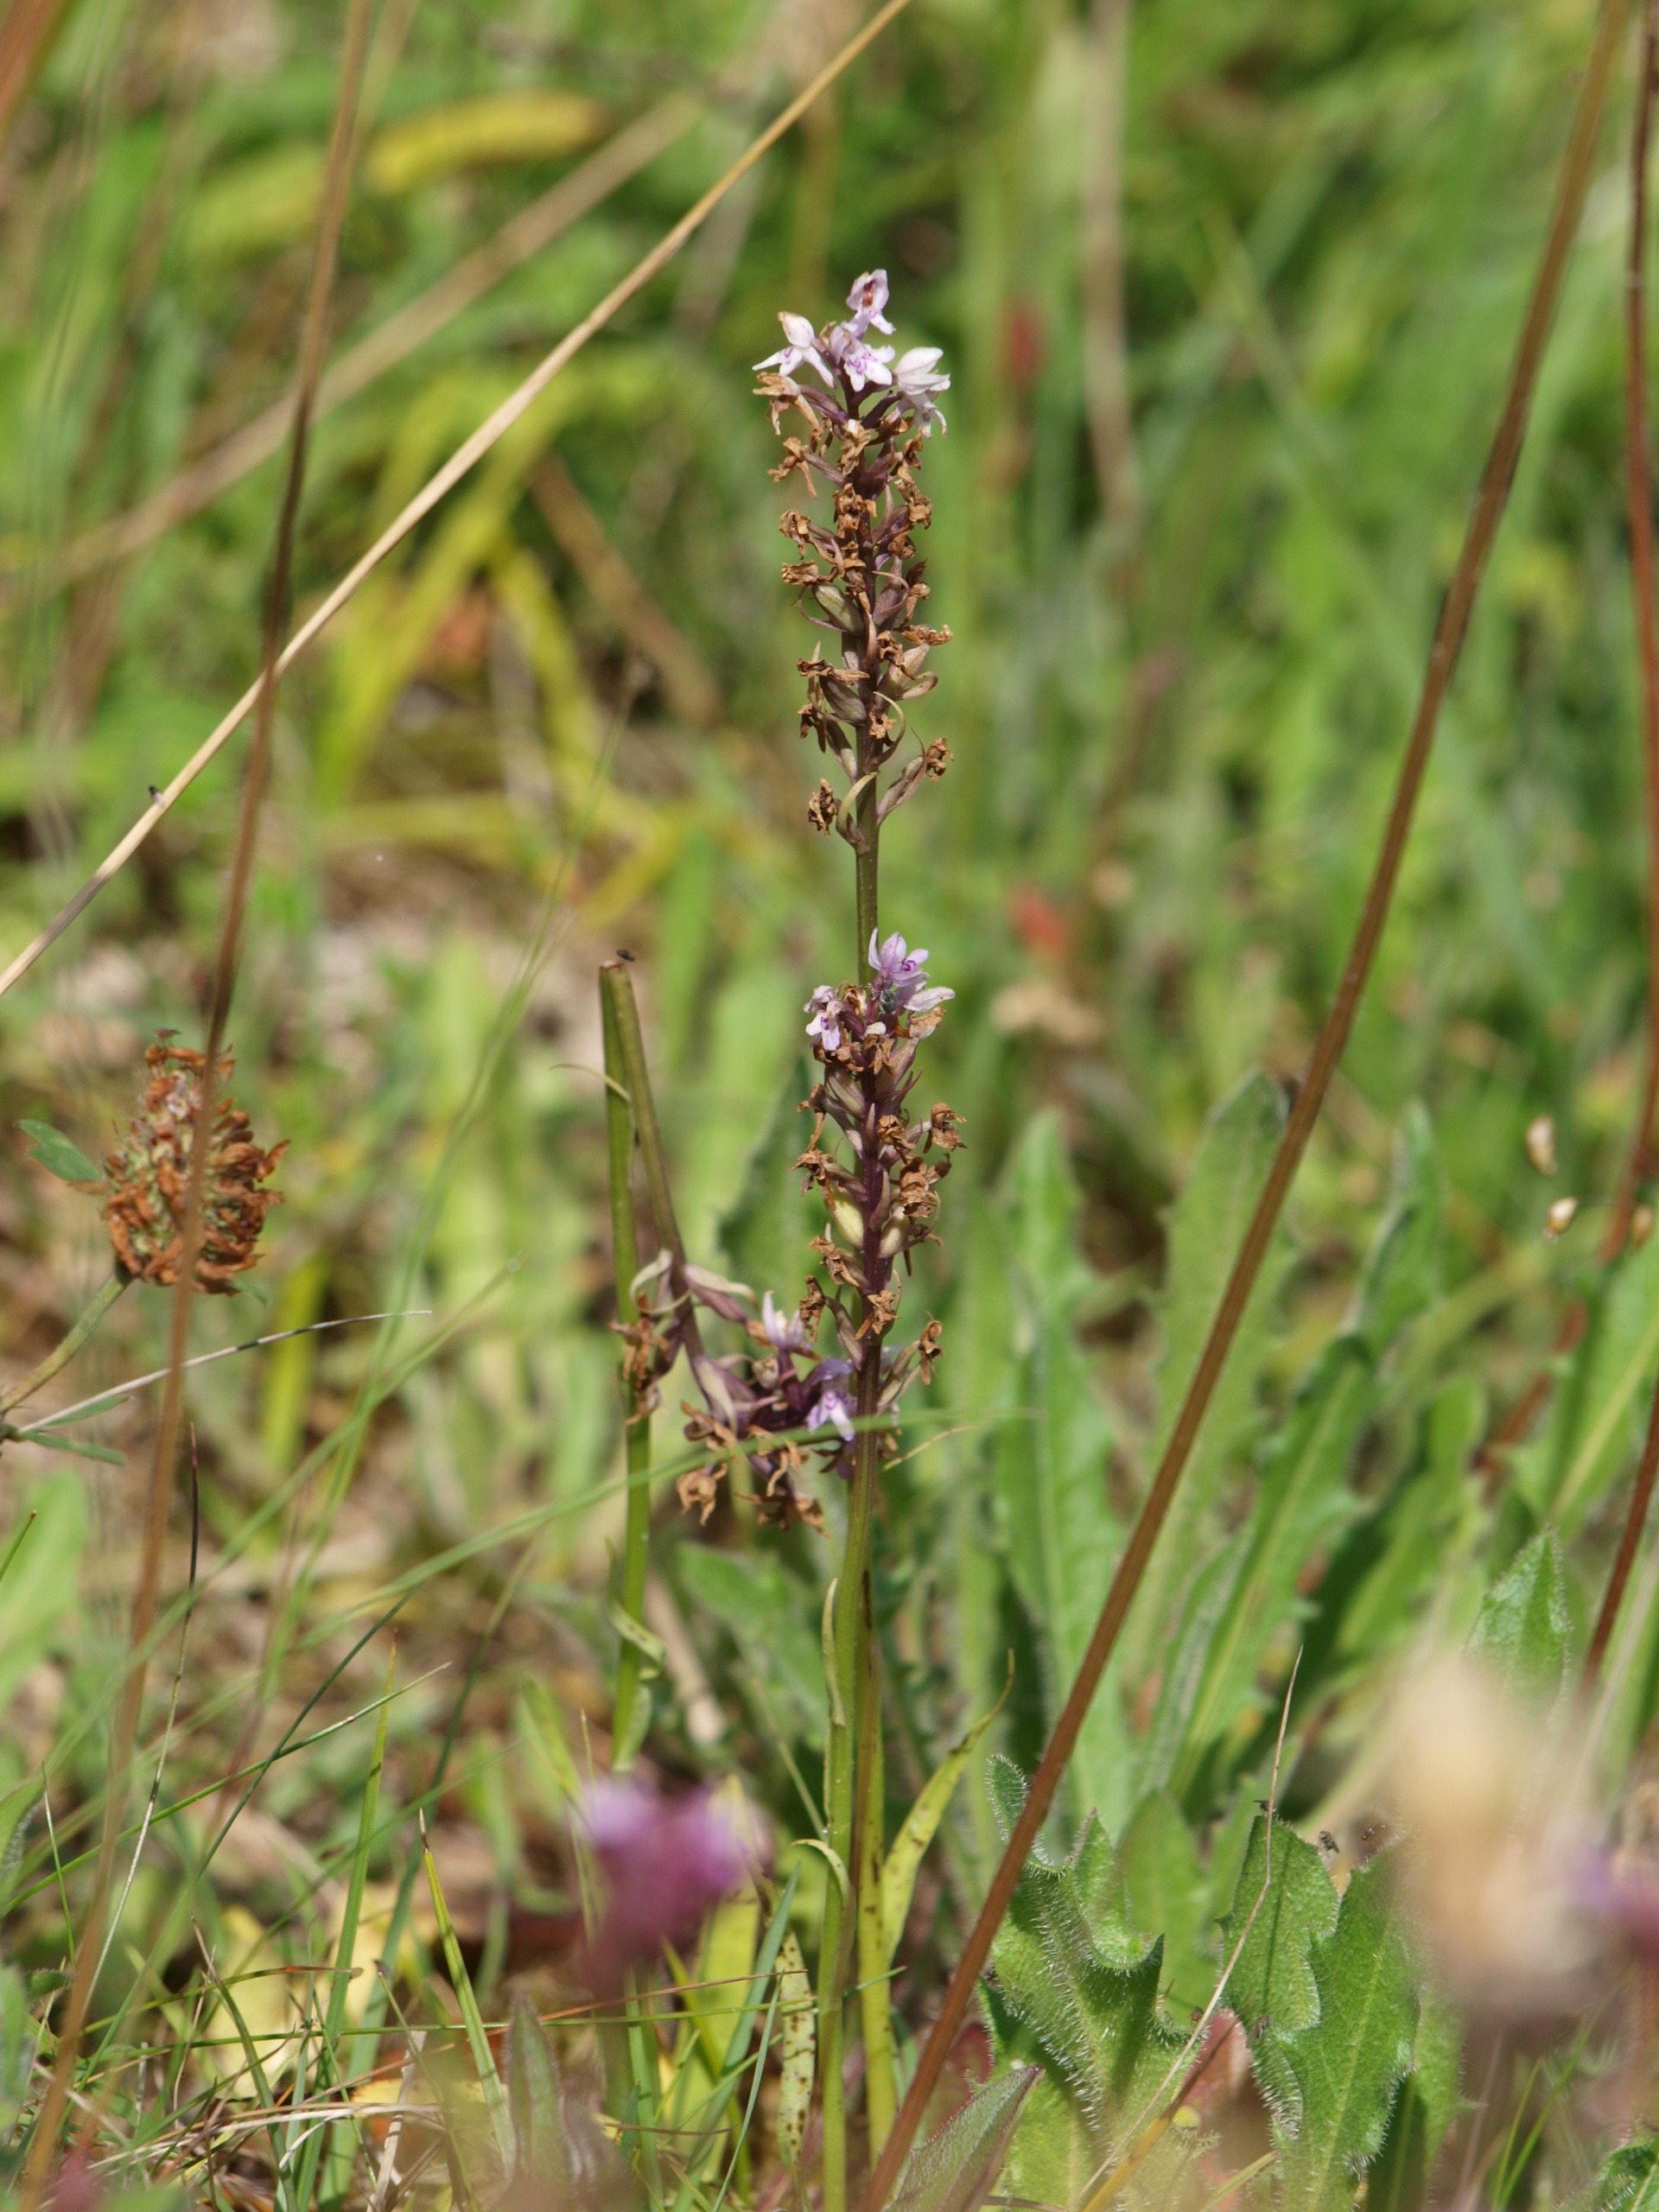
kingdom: Plantae
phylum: Tracheophyta
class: Liliopsida
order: Asparagales
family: Orchidaceae
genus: Dactylorhiza
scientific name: Dactylorhiza maculata
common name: Skov-gøgeurt
